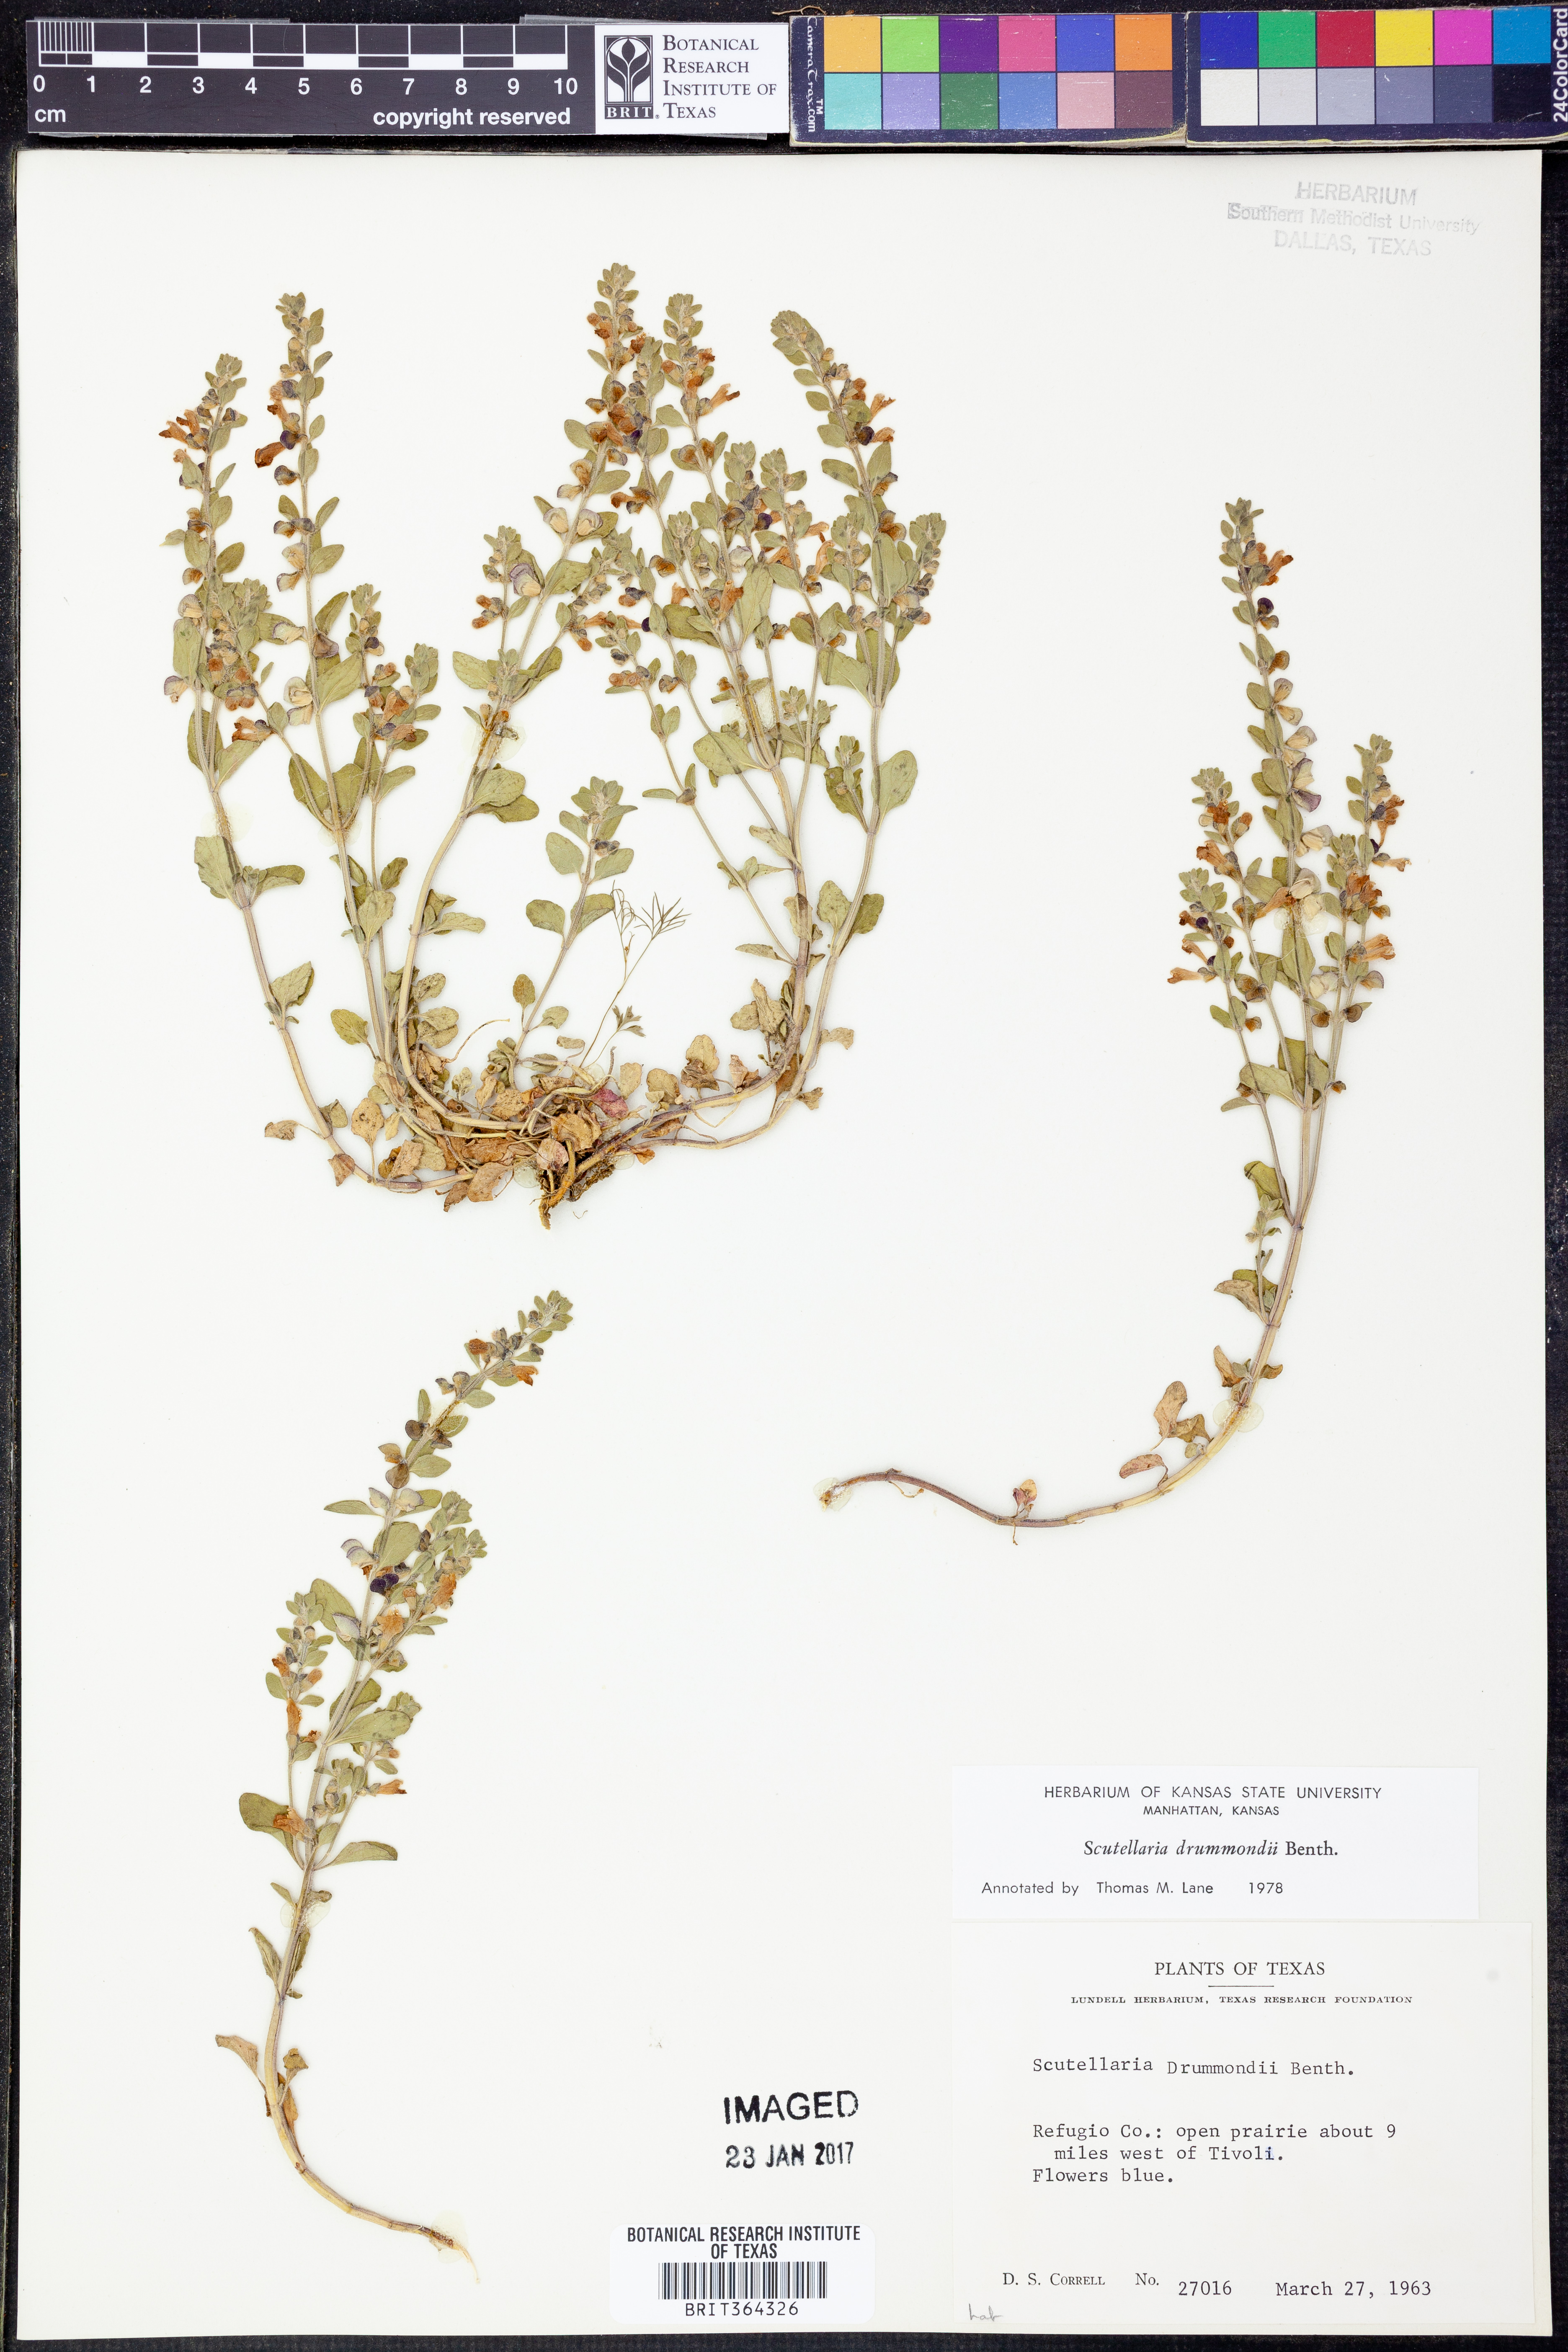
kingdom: Plantae
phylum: Tracheophyta
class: Magnoliopsida
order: Lamiales
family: Lamiaceae
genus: Scutellaria
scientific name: Scutellaria drummondii
